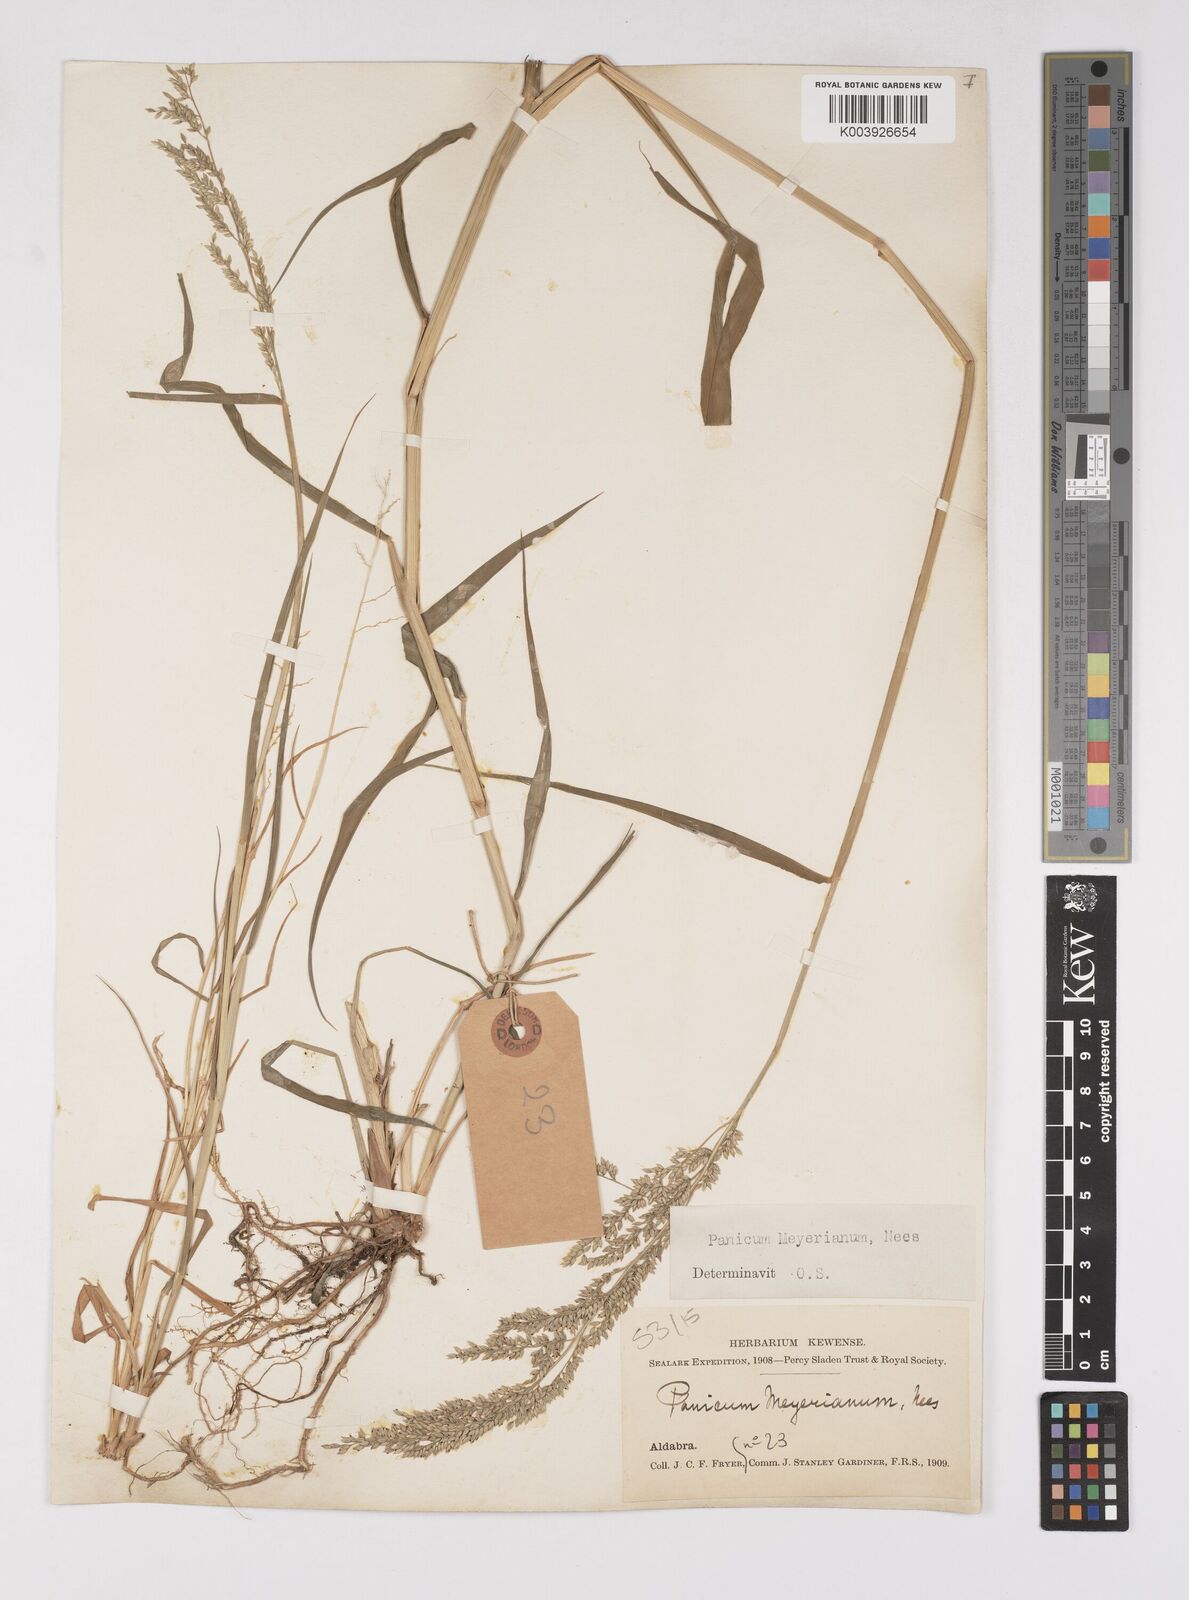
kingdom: Plantae
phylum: Tracheophyta
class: Liliopsida
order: Poales
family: Poaceae
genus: Eriochloa
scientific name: Eriochloa meyeriana
